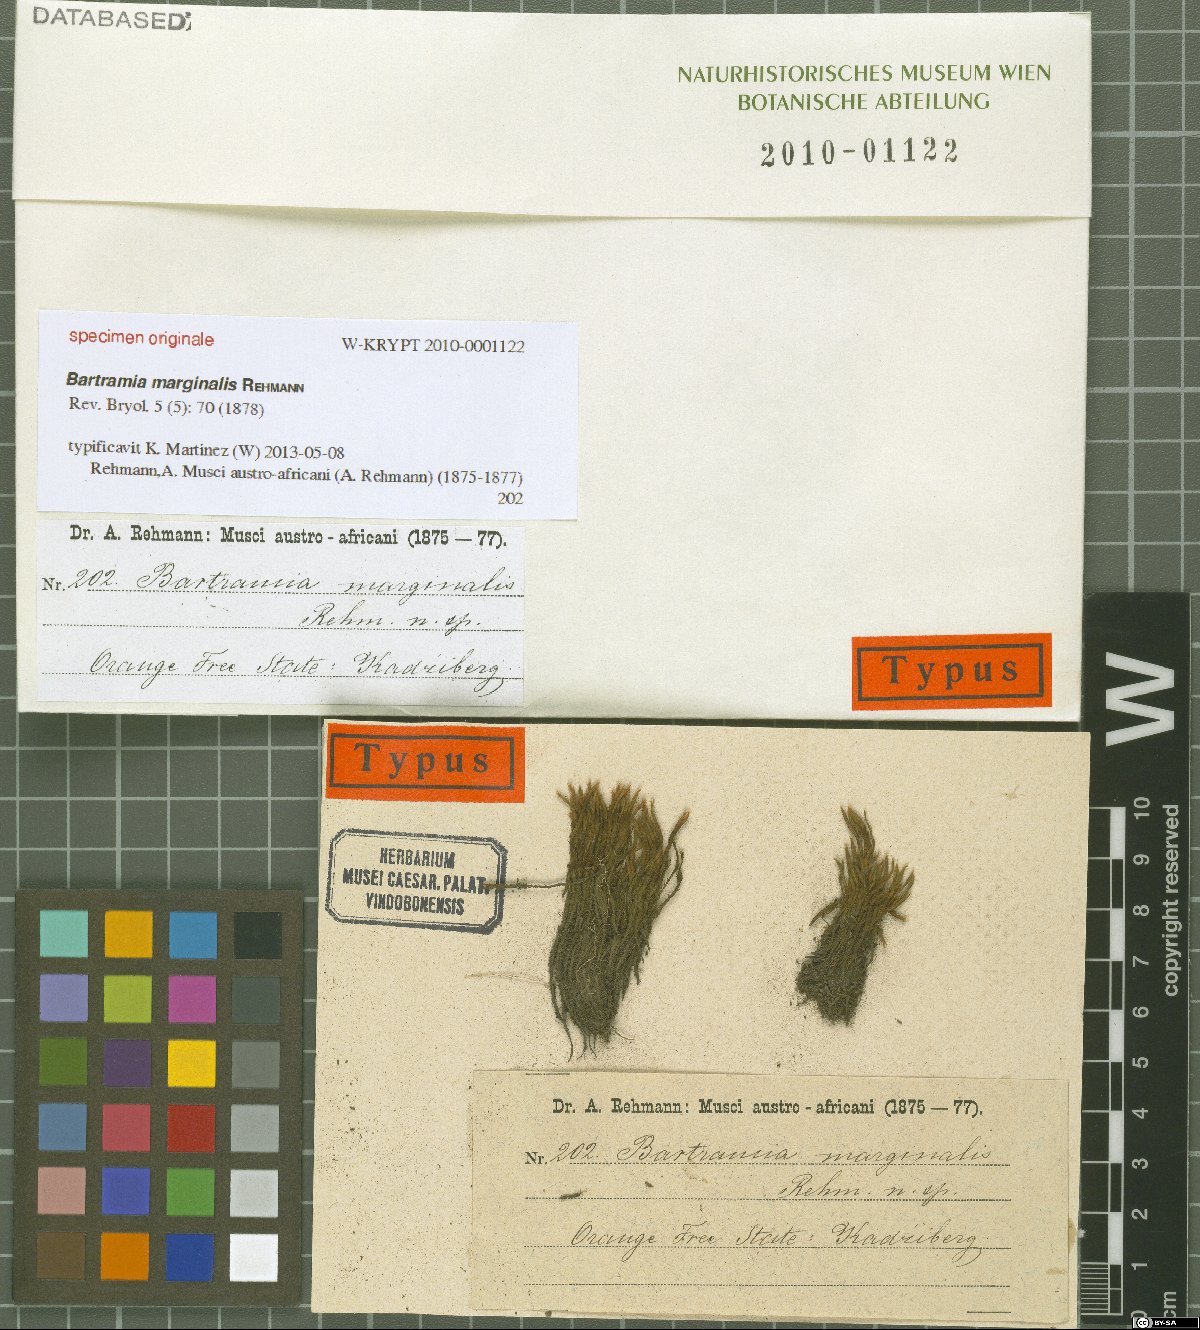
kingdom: Plantae
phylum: Bryophyta
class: Bryopsida
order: Bartramiales
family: Bartramiaceae
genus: Bartramia
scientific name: Bartramia
